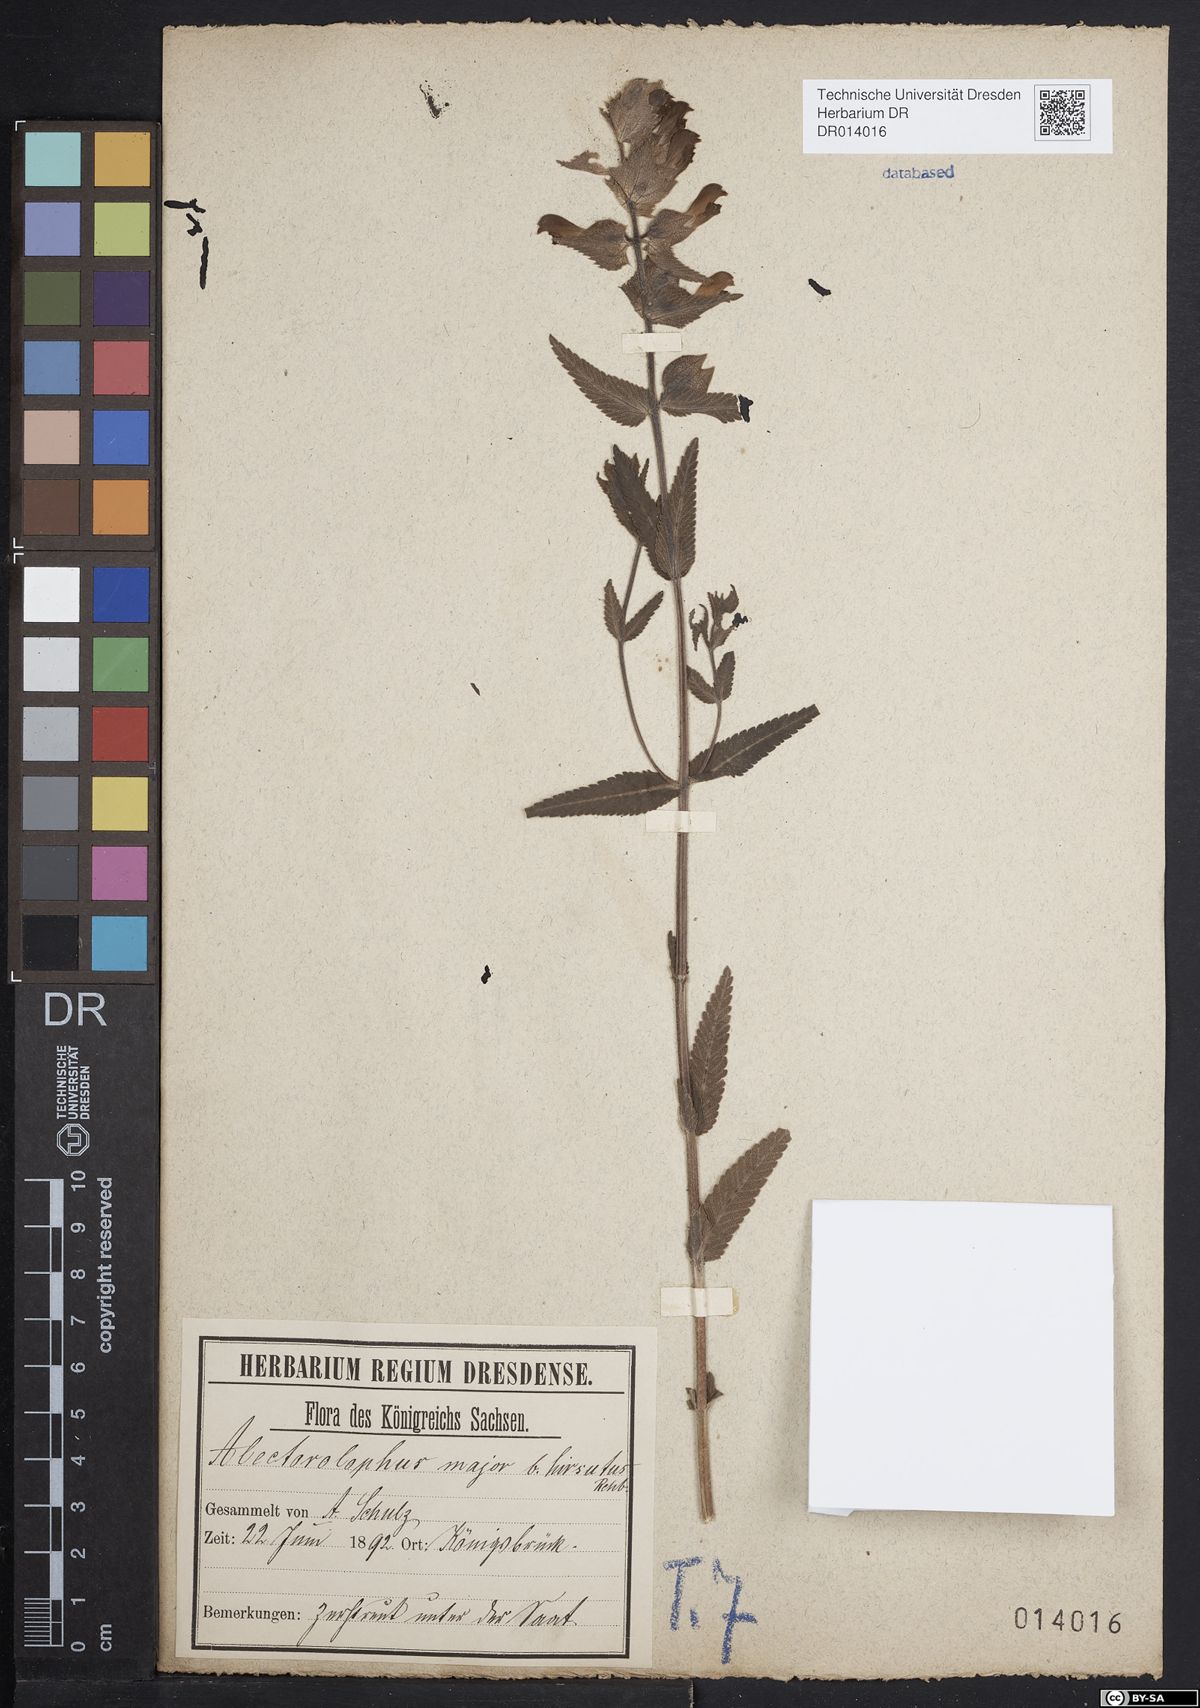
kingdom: Plantae
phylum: Tracheophyta
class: Magnoliopsida
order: Lamiales
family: Orobanchaceae
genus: Rhinanthus
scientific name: Rhinanthus alectorolophus
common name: Greater yellow-rattle
